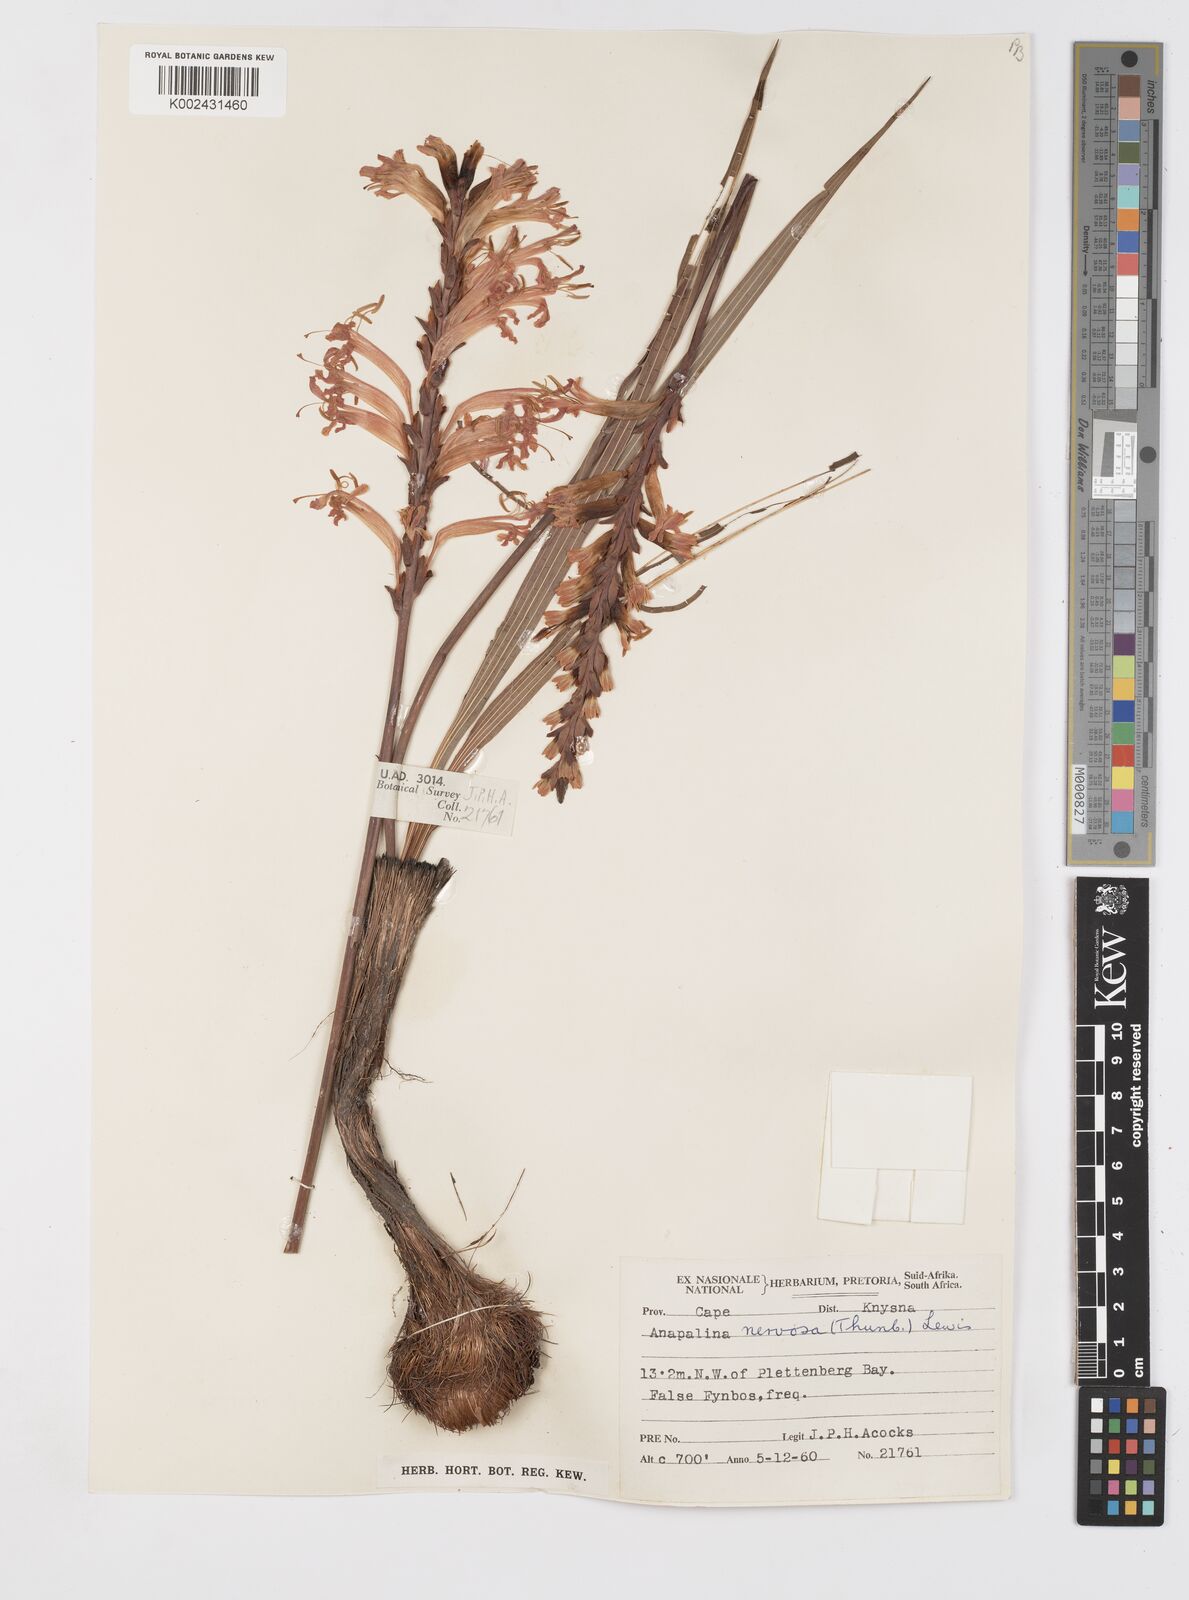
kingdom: Plantae
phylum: Tracheophyta
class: Liliopsida
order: Asparagales
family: Iridaceae
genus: Tritoniopsis
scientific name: Tritoniopsis nervosa
